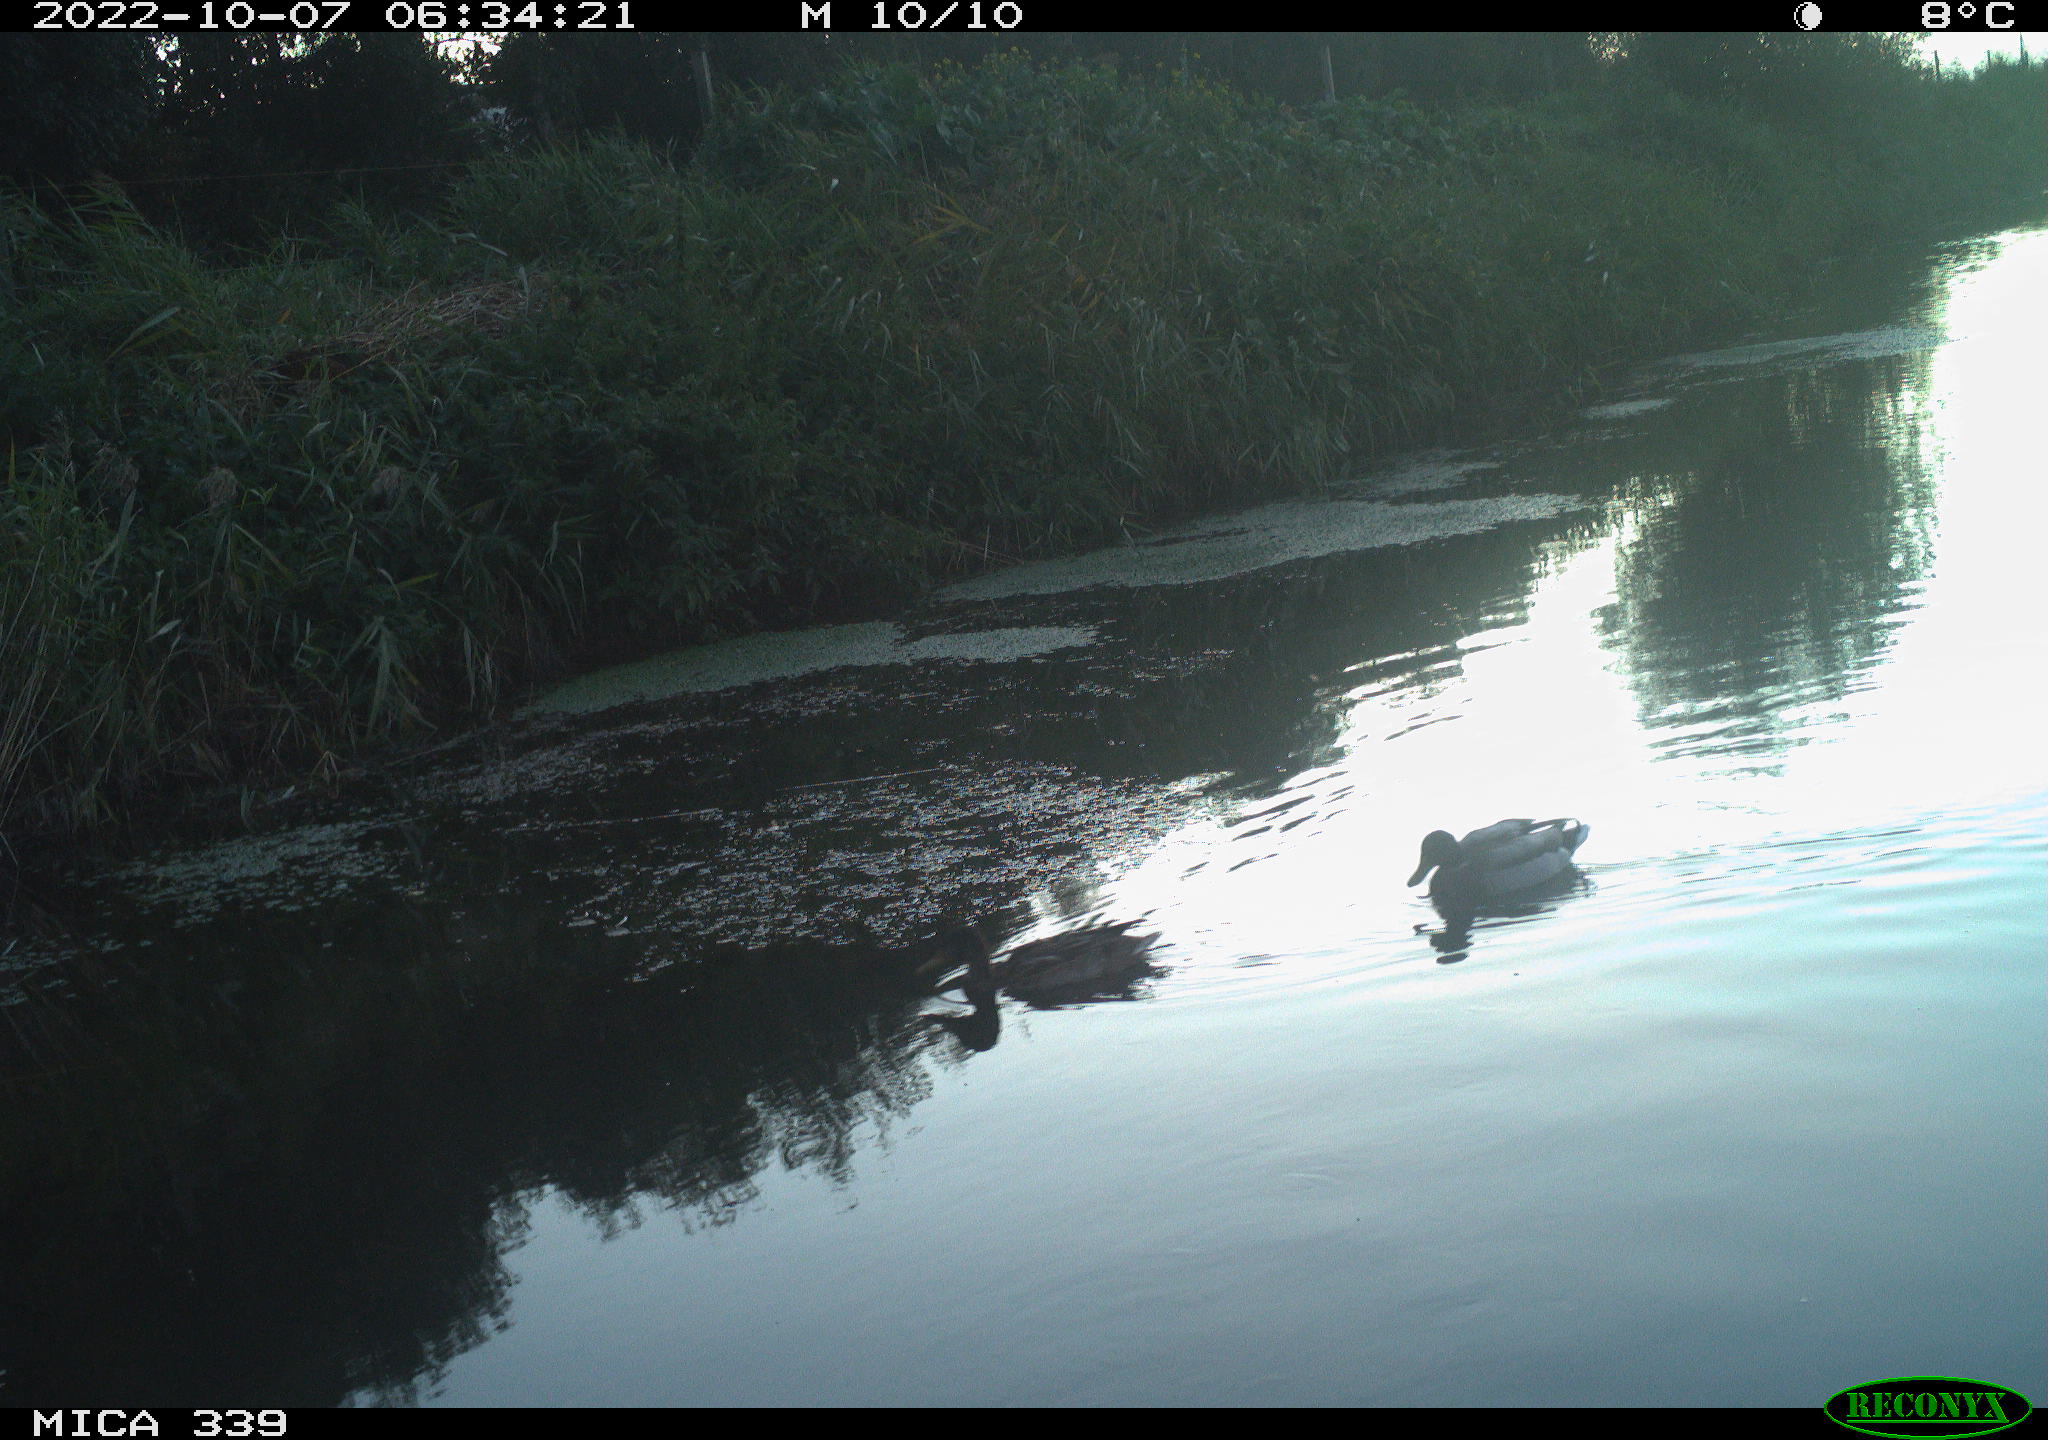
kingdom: Animalia
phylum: Chordata
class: Aves
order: Anseriformes
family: Anatidae
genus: Anas
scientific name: Anas platyrhynchos
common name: Mallard
